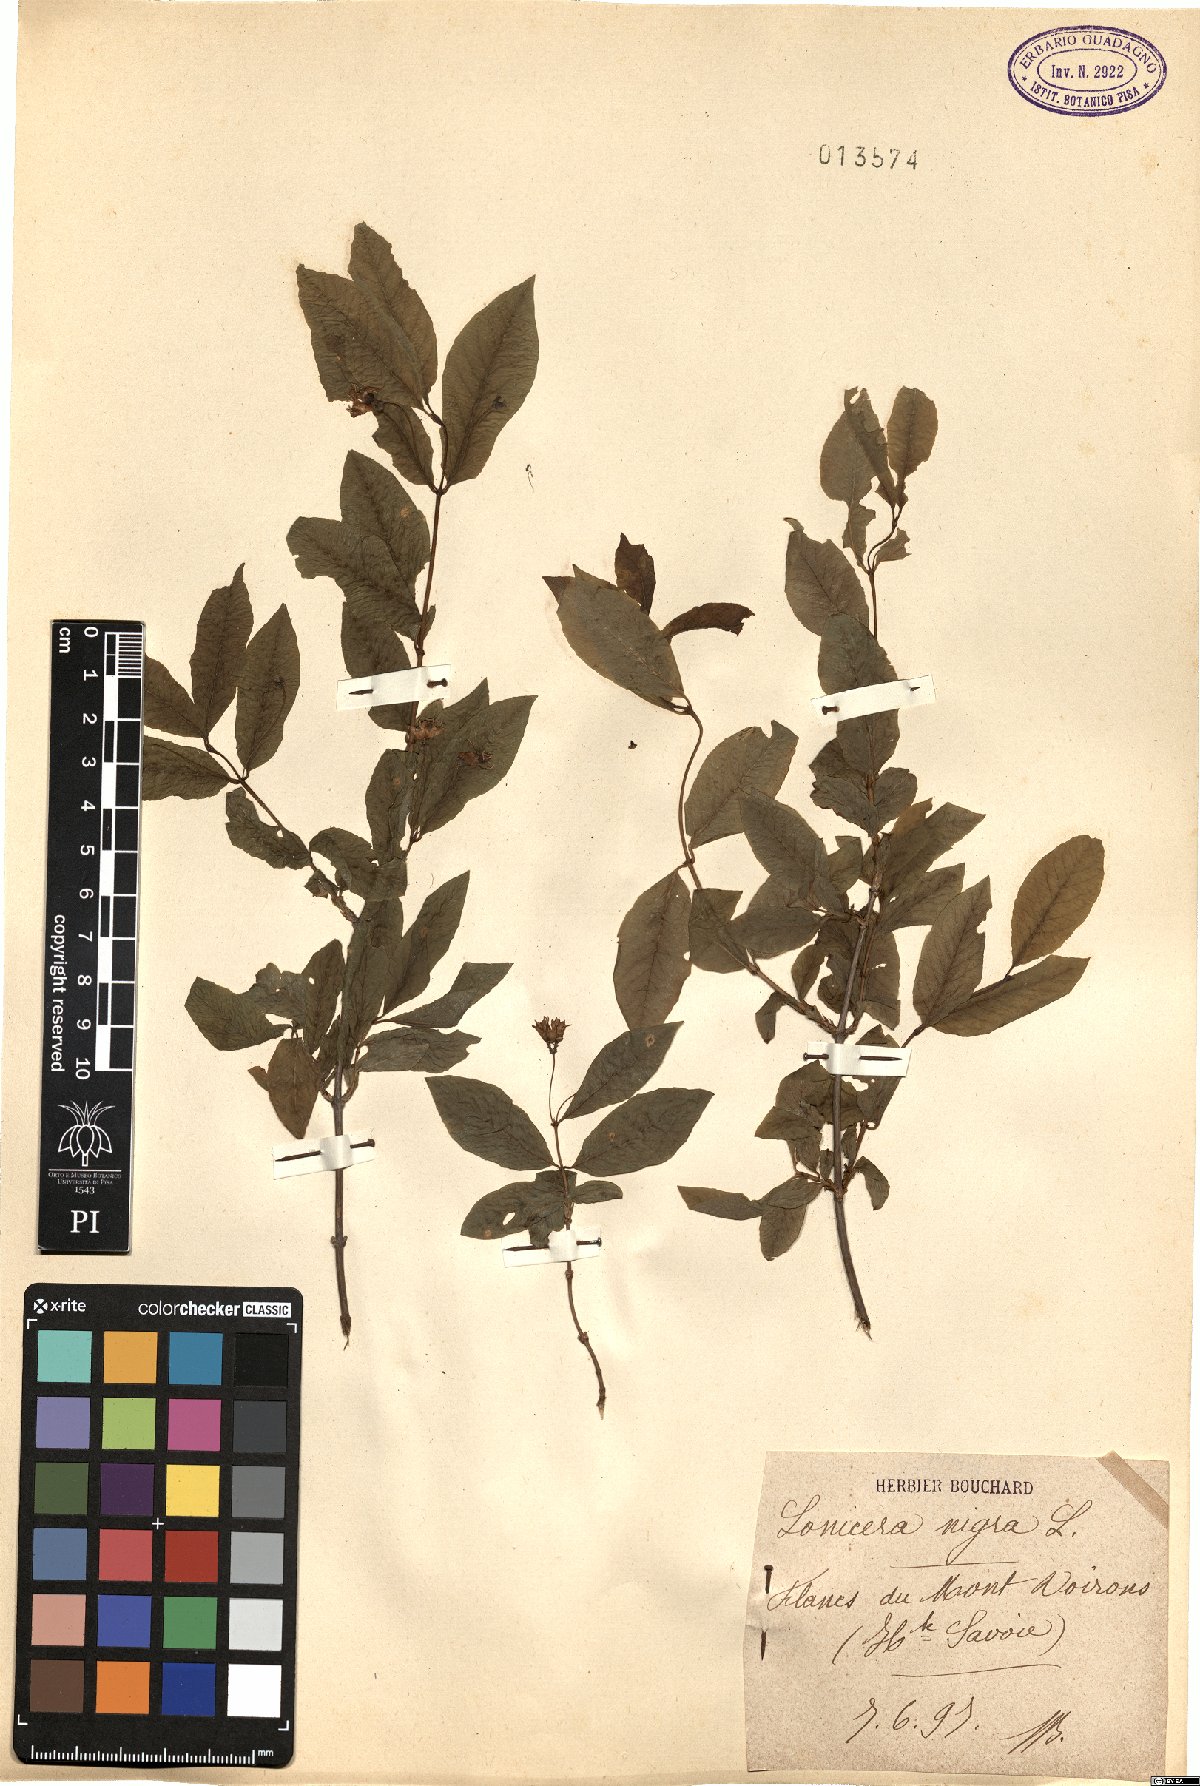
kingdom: Plantae
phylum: Tracheophyta
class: Magnoliopsida
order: Dipsacales
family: Caprifoliaceae
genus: Lonicera
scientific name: Lonicera nigra
